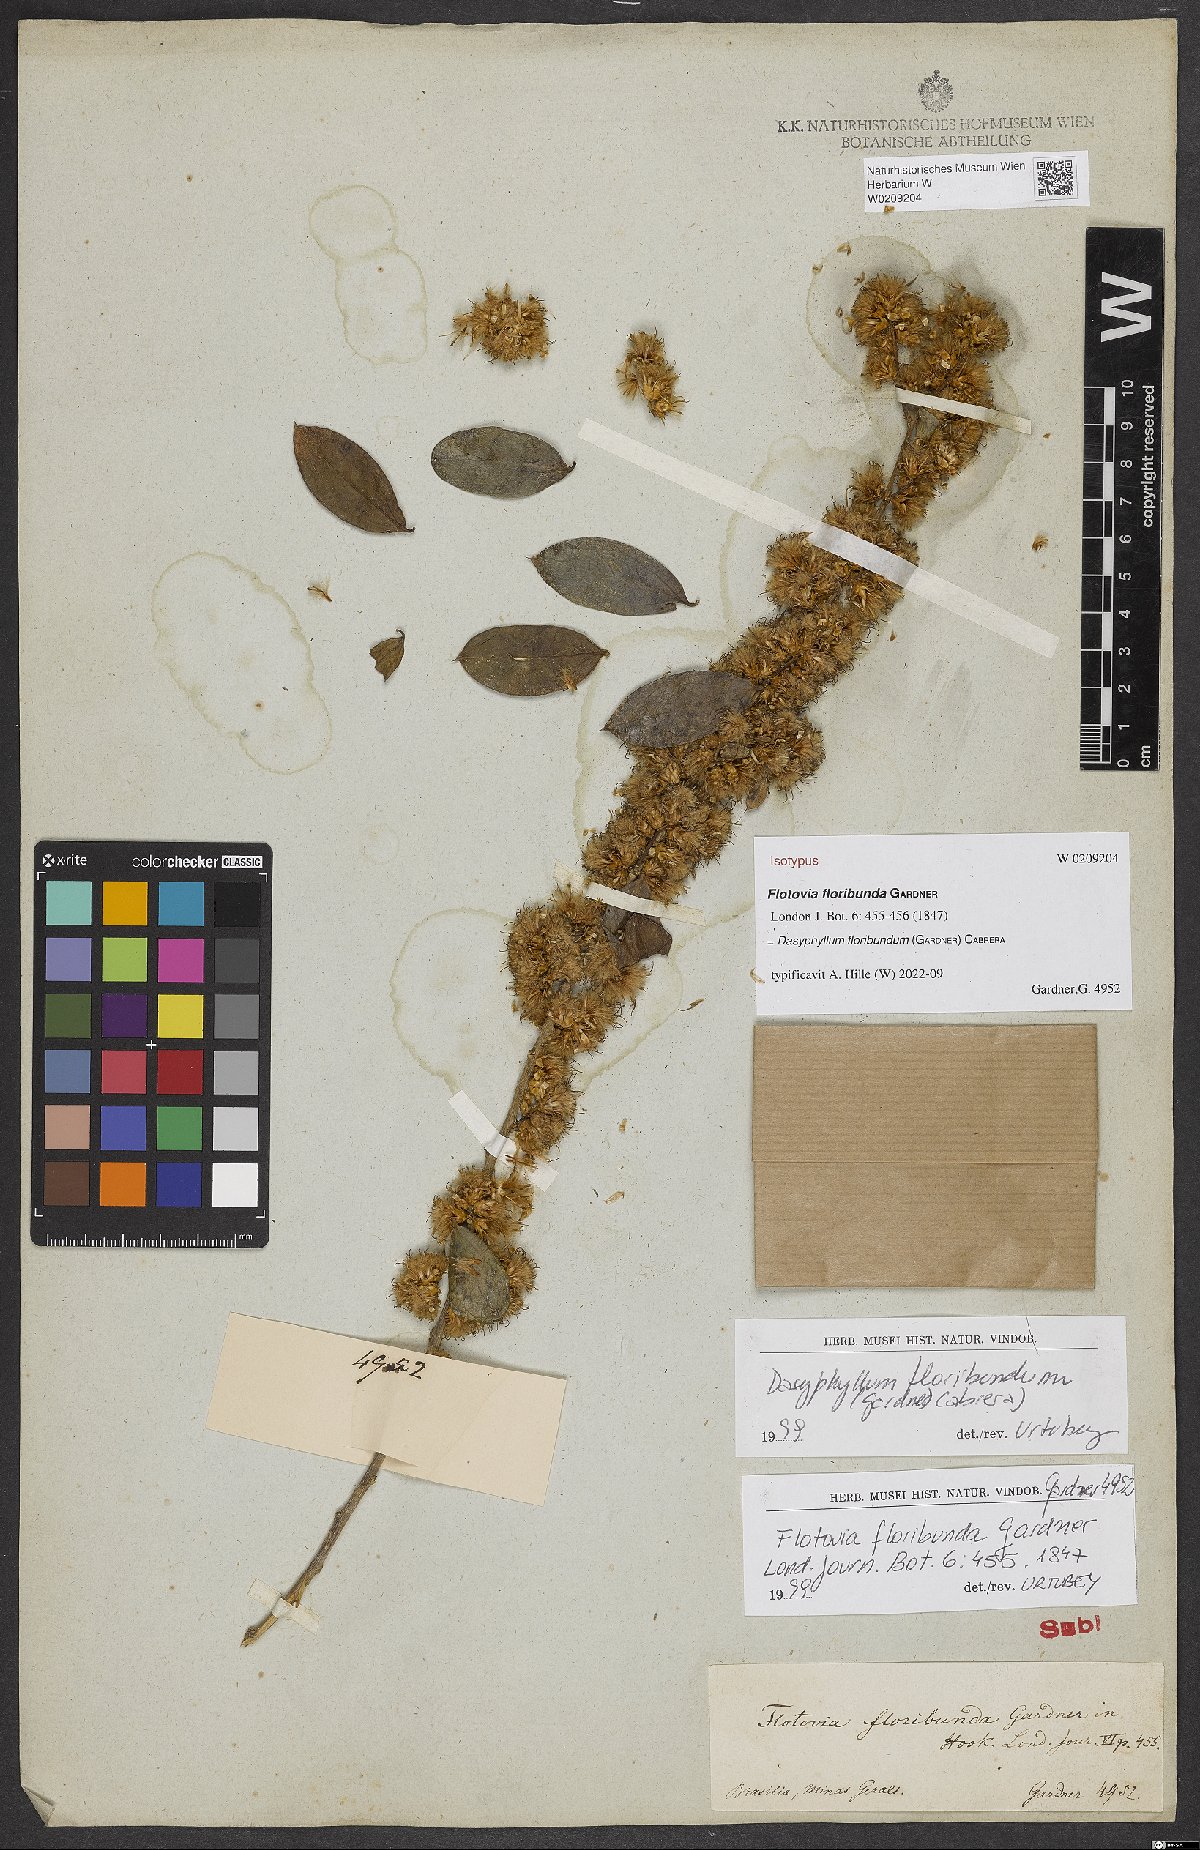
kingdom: Plantae
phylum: Tracheophyta
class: Magnoliopsida
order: Asterales
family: Asteraceae
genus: Dasyphyllum
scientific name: Dasyphyllum floribundum
